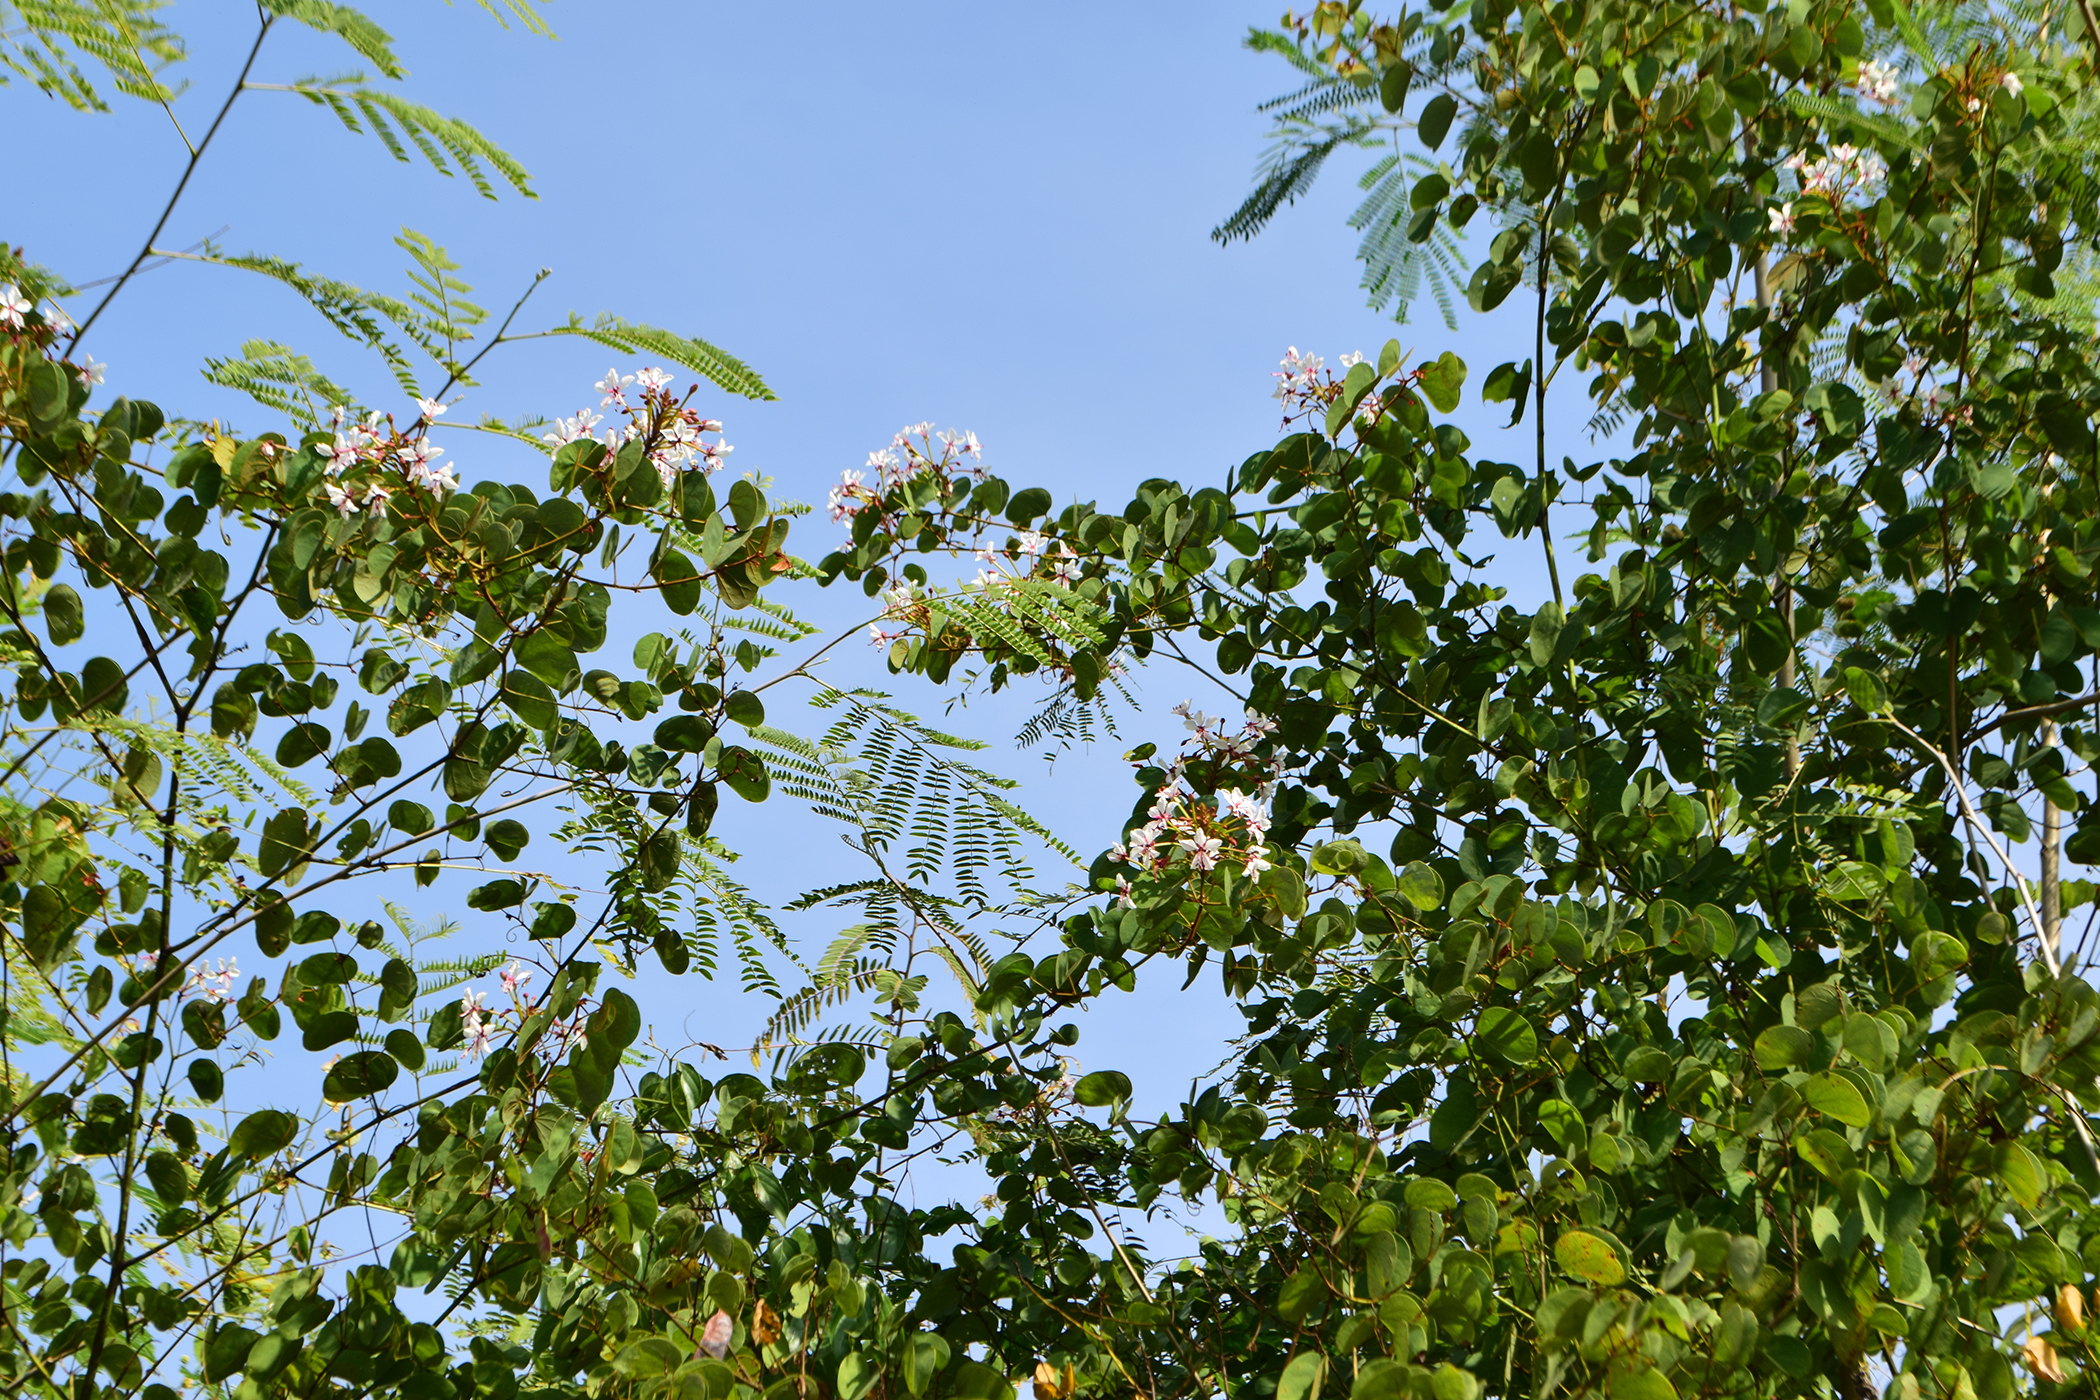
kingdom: Plantae
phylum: Tracheophyta
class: Magnoliopsida
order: Fabales
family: Fabaceae
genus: Cheniella
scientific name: Cheniella lakhonensis
